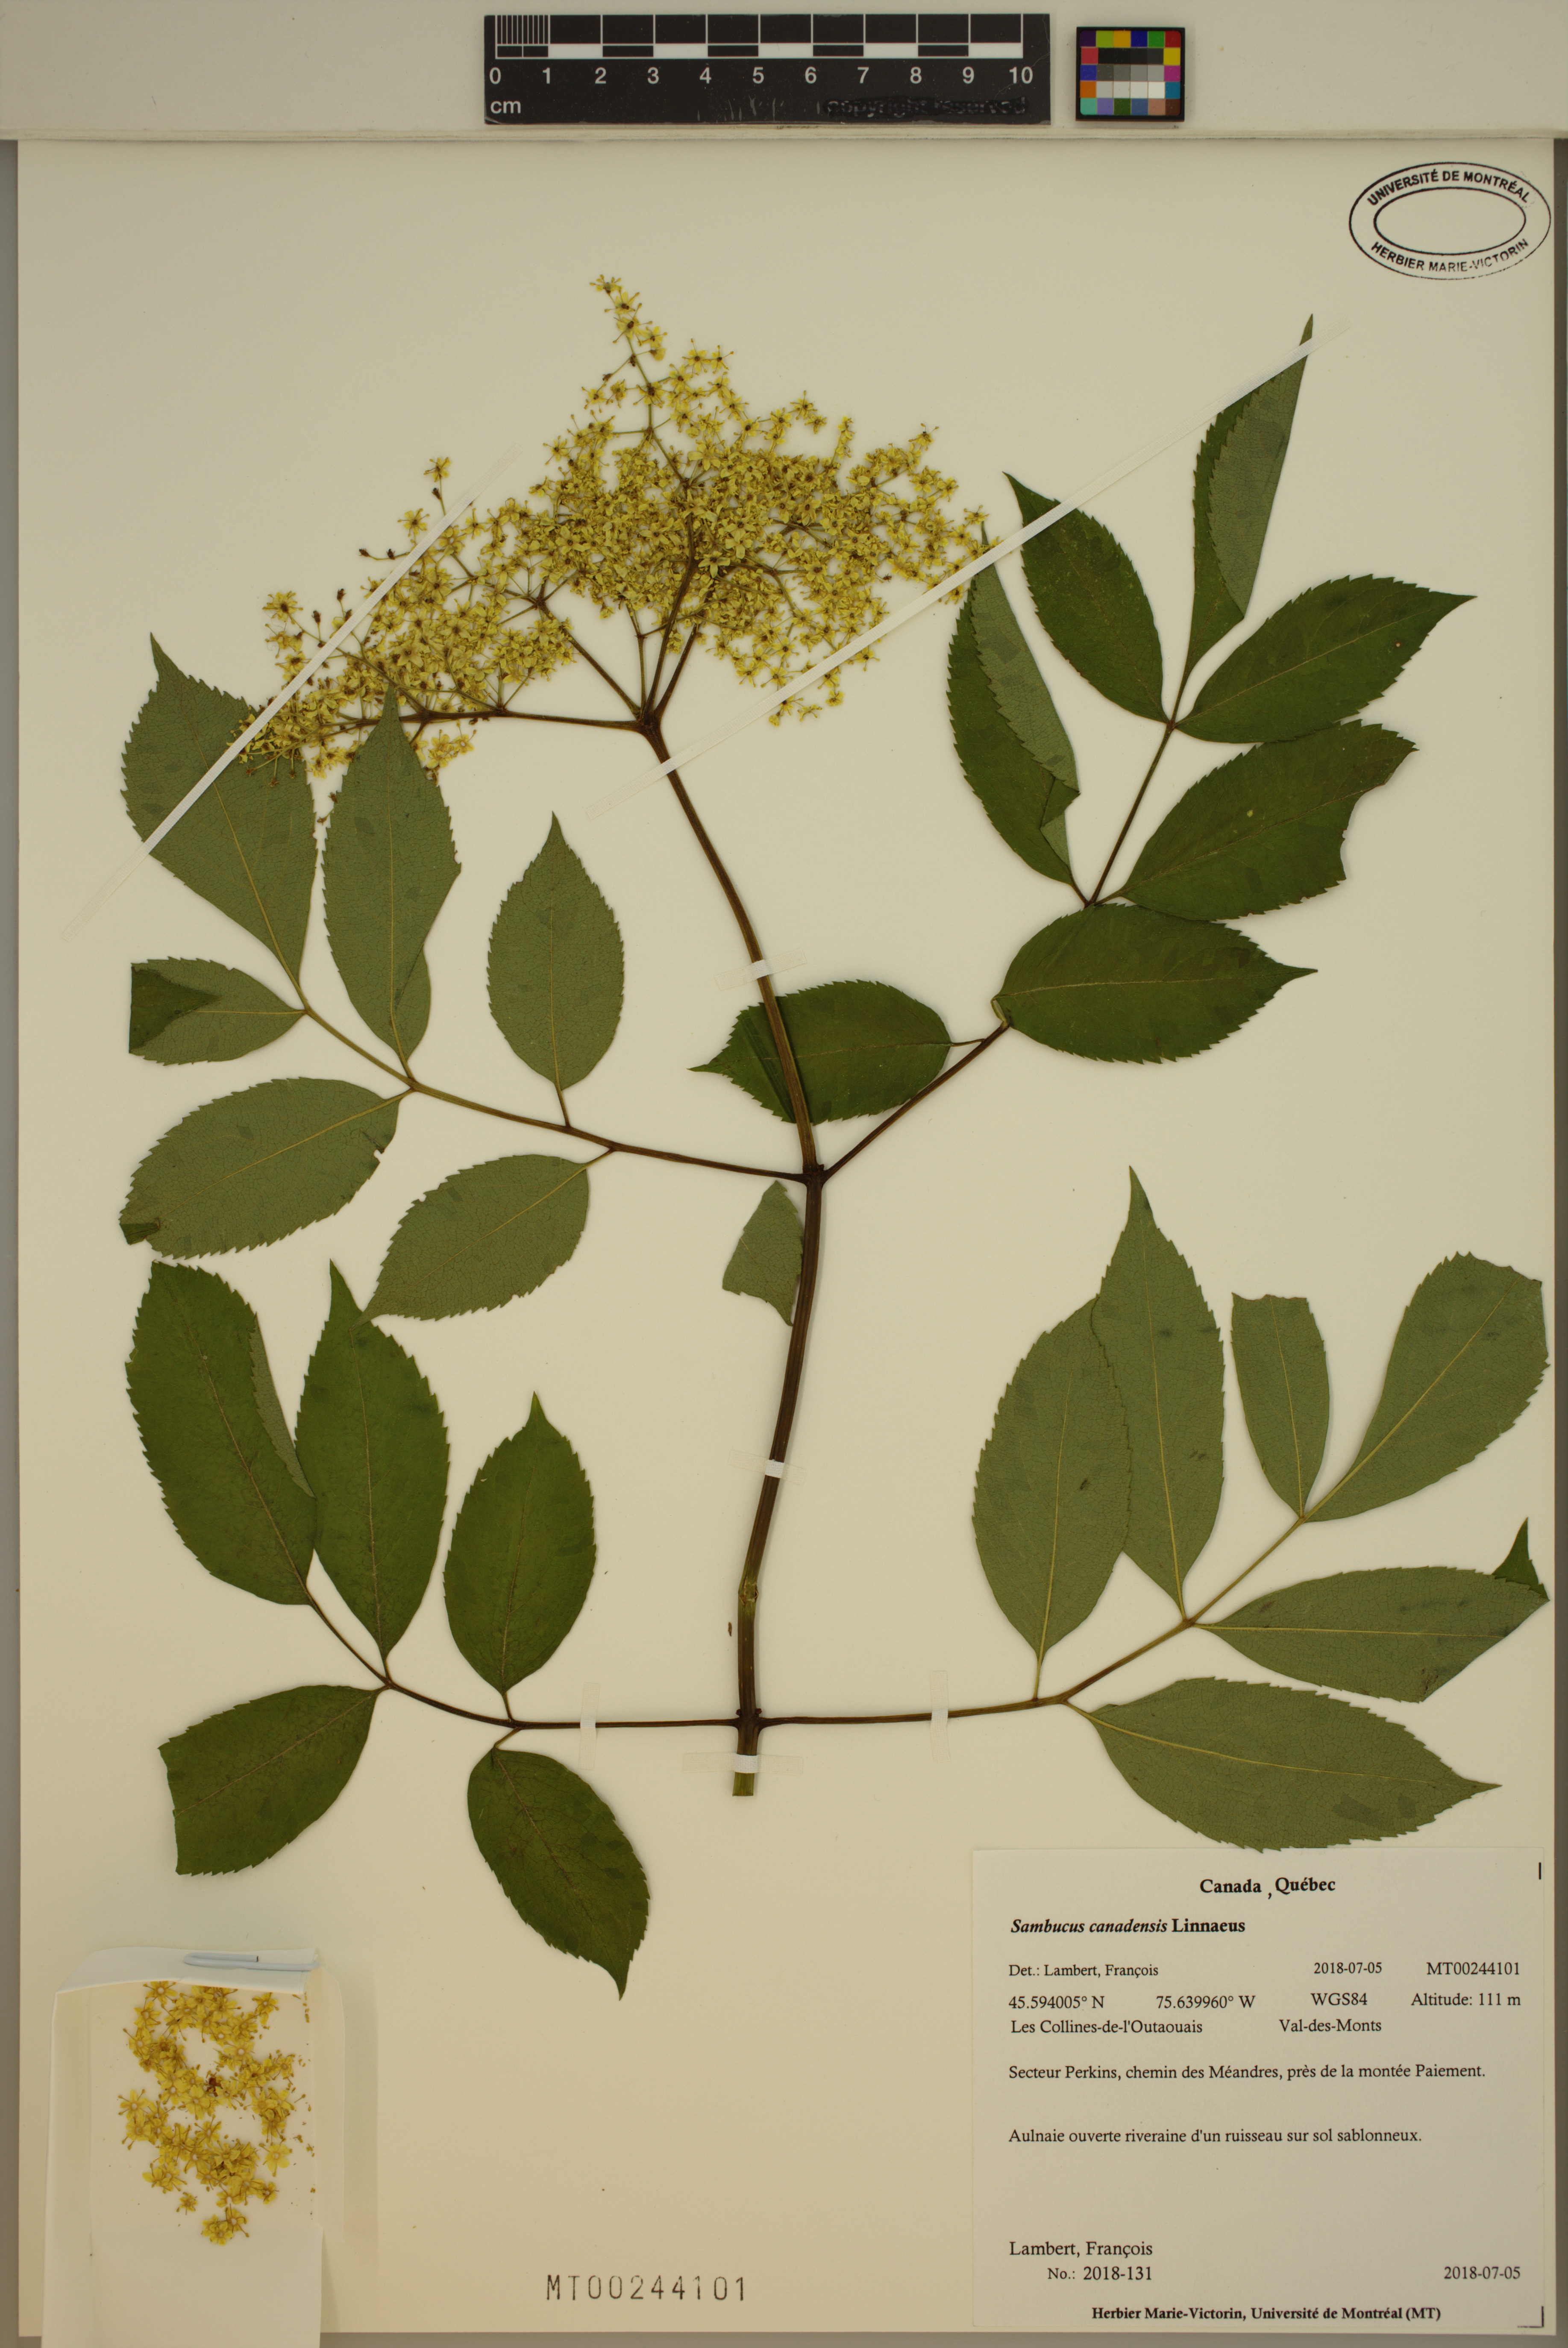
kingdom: Plantae
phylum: Tracheophyta
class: Magnoliopsida
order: Dipsacales
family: Viburnaceae
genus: Sambucus
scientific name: Sambucus canadensis
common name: American elder
